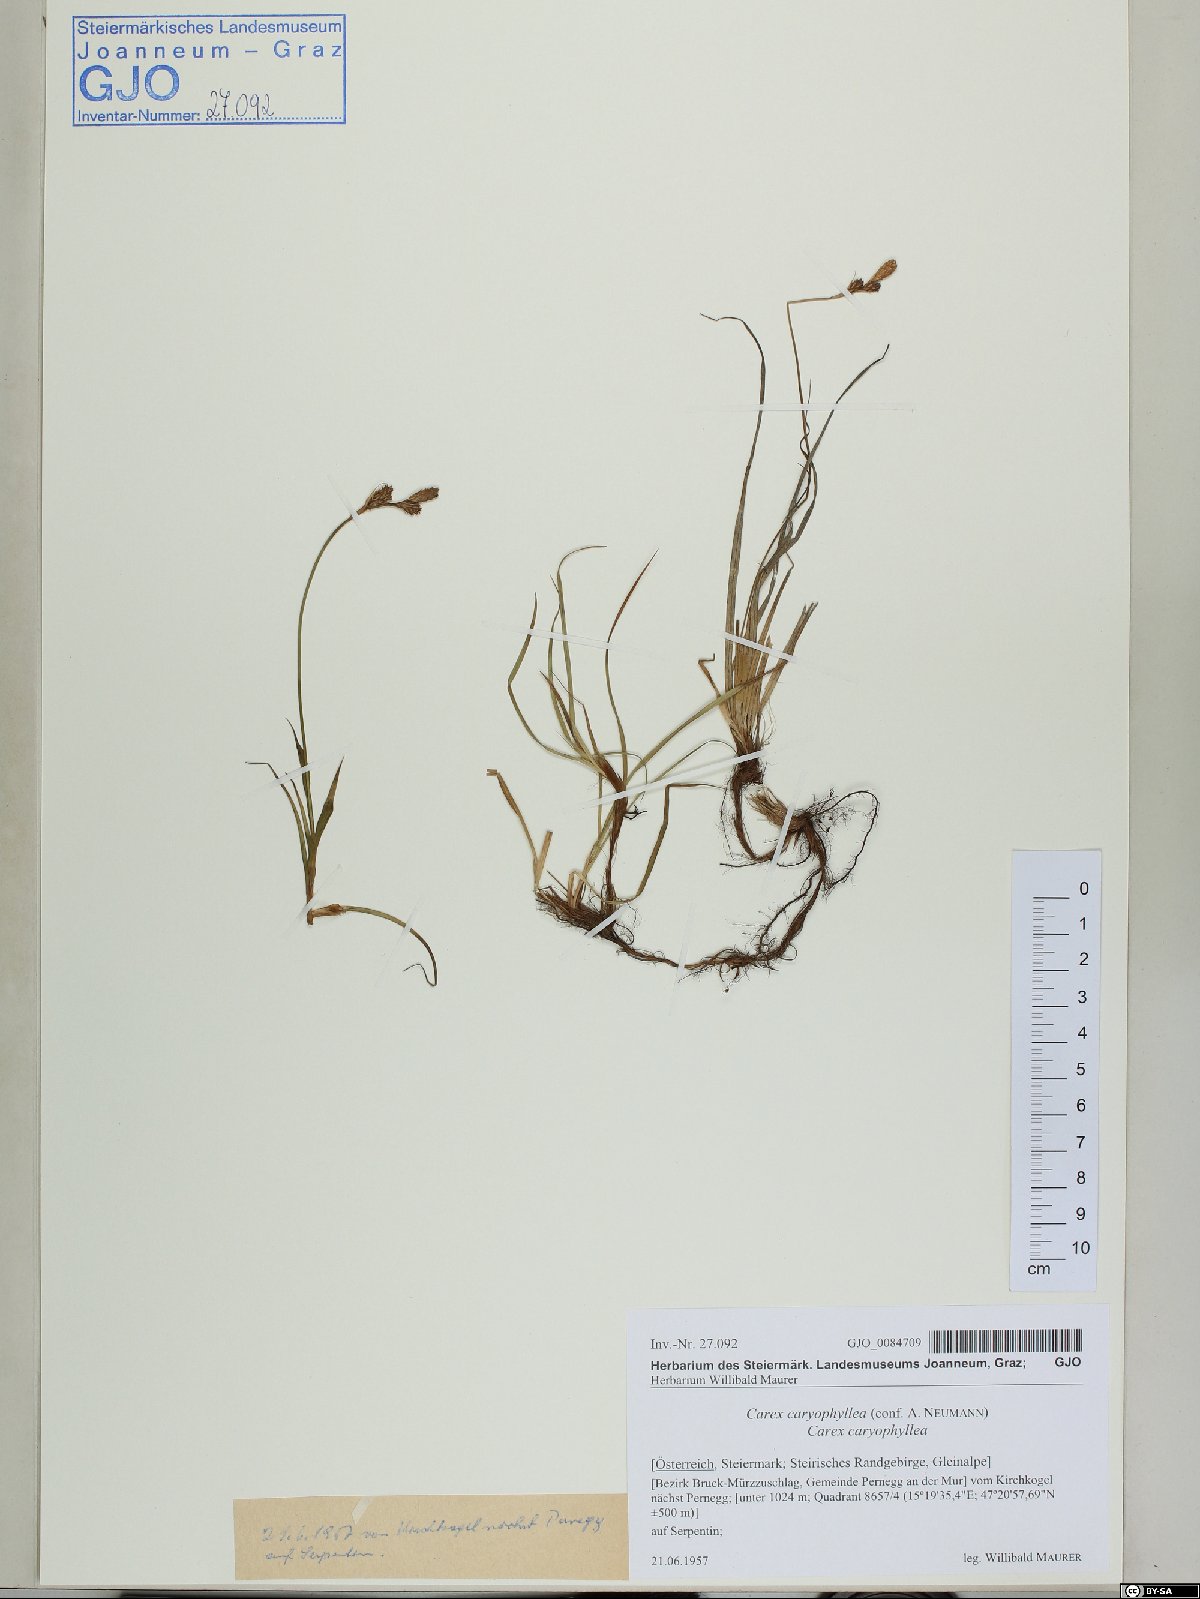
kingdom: Plantae
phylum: Tracheophyta
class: Liliopsida
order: Poales
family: Cyperaceae
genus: Carex
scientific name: Carex caryophyllea
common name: Spring sedge
